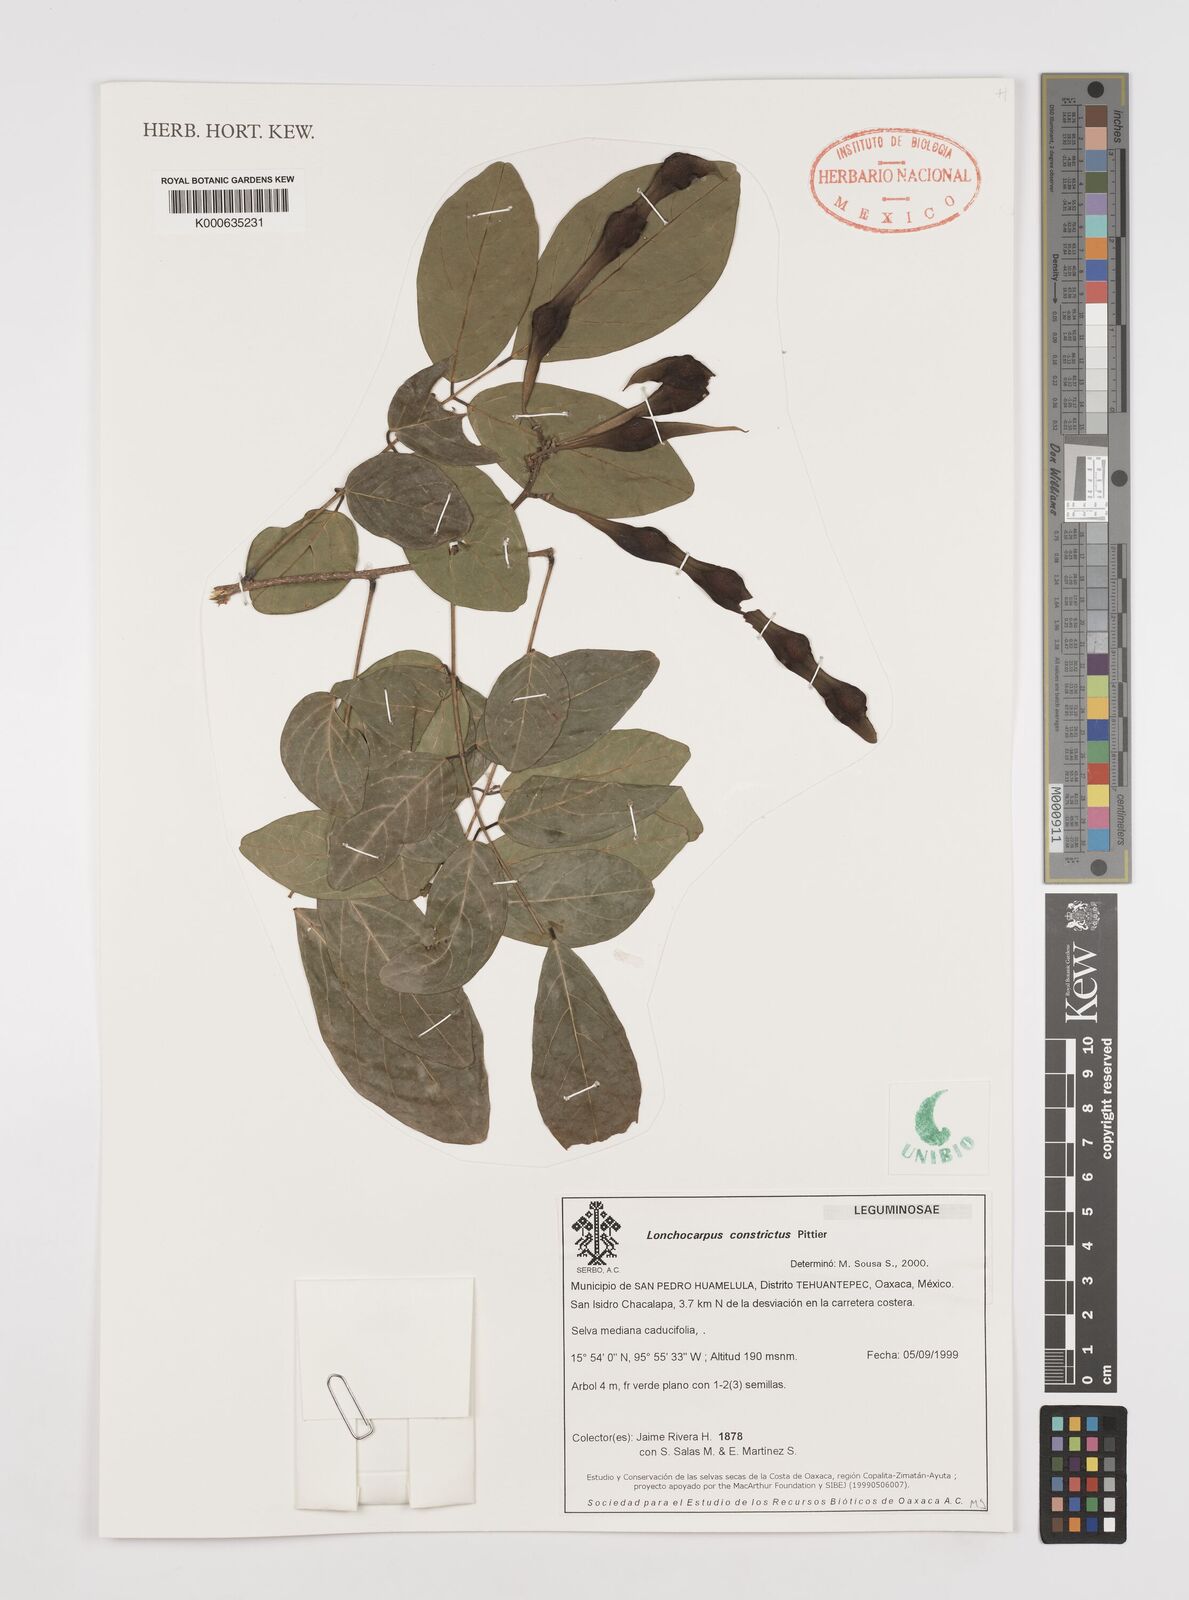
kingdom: Plantae
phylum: Tracheophyta
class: Magnoliopsida
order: Fabales
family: Fabaceae
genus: Lonchocarpus
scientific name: Lonchocarpus constrictus
